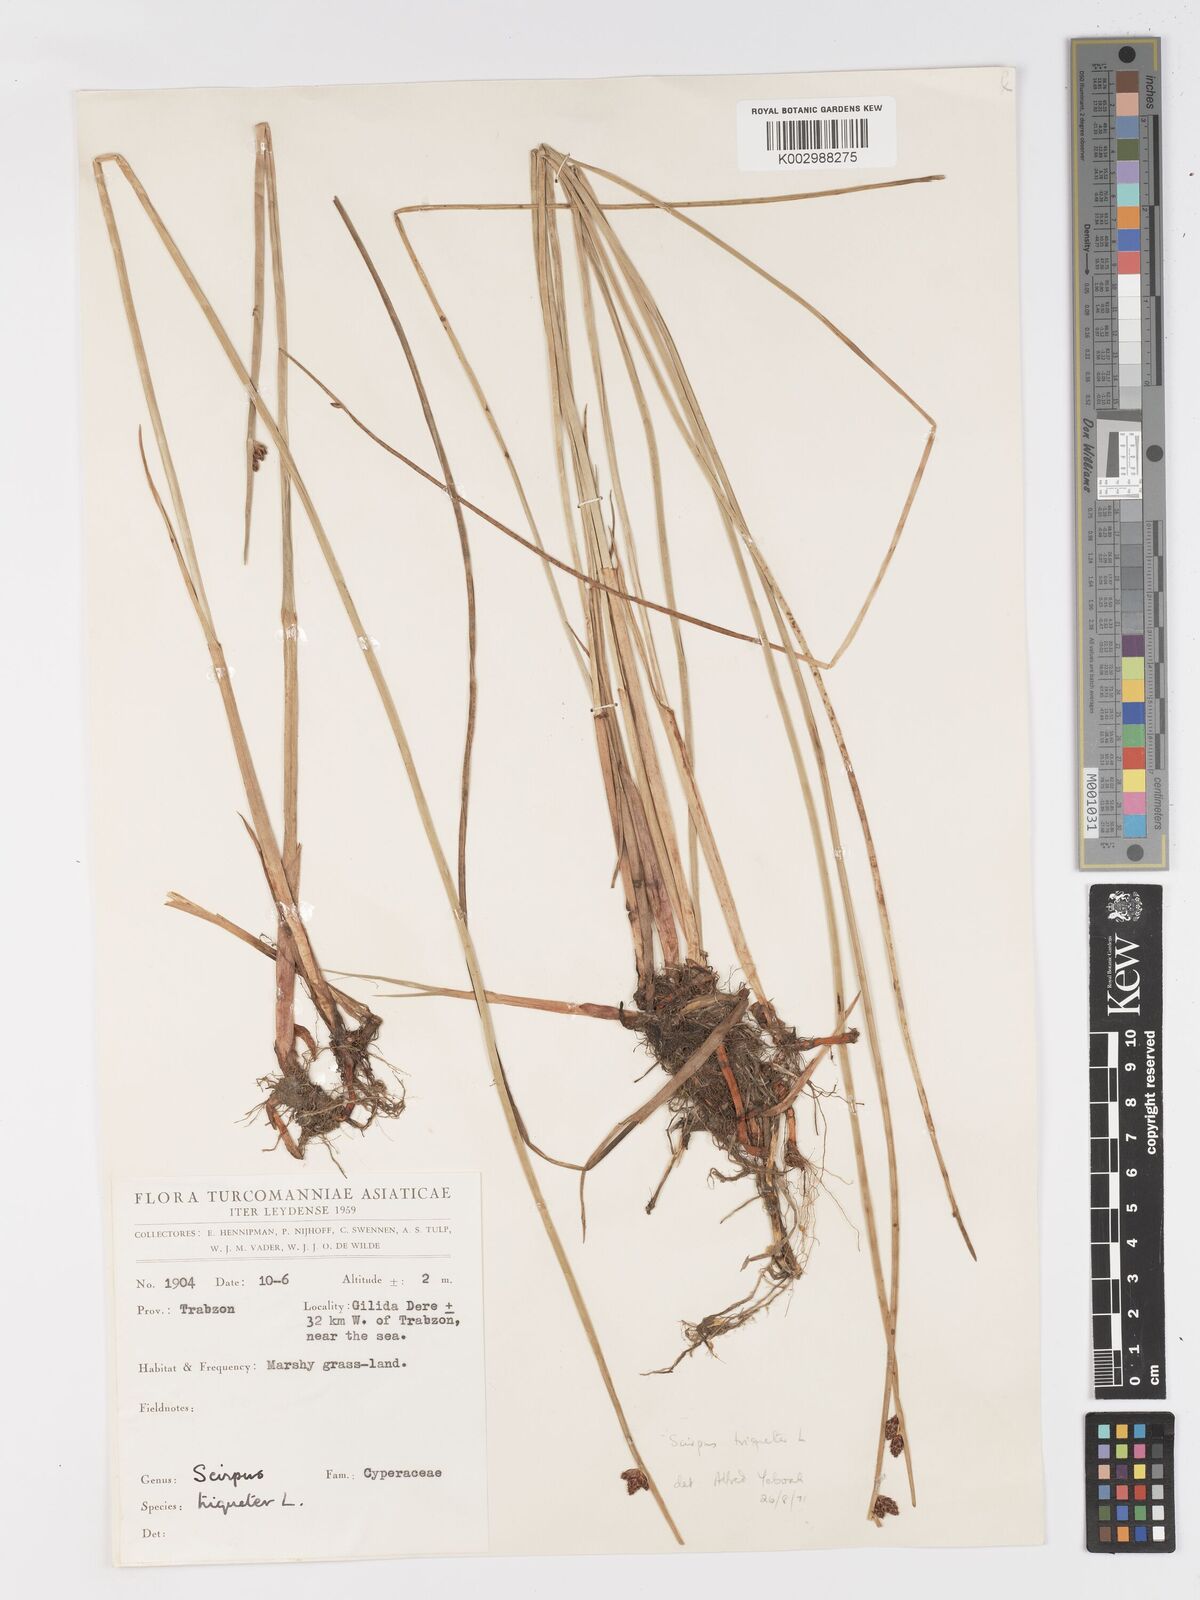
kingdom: Plantae
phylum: Tracheophyta
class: Liliopsida
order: Poales
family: Cyperaceae
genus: Schoenoplectus
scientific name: Schoenoplectus triqueter
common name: Triangular club-rush
